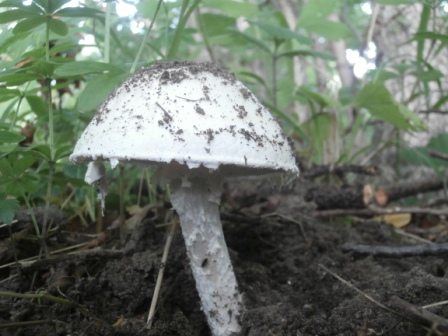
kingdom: Fungi
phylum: Basidiomycota
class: Agaricomycetes
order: Agaricales
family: Amanitaceae
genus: Amanita
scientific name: Amanita
